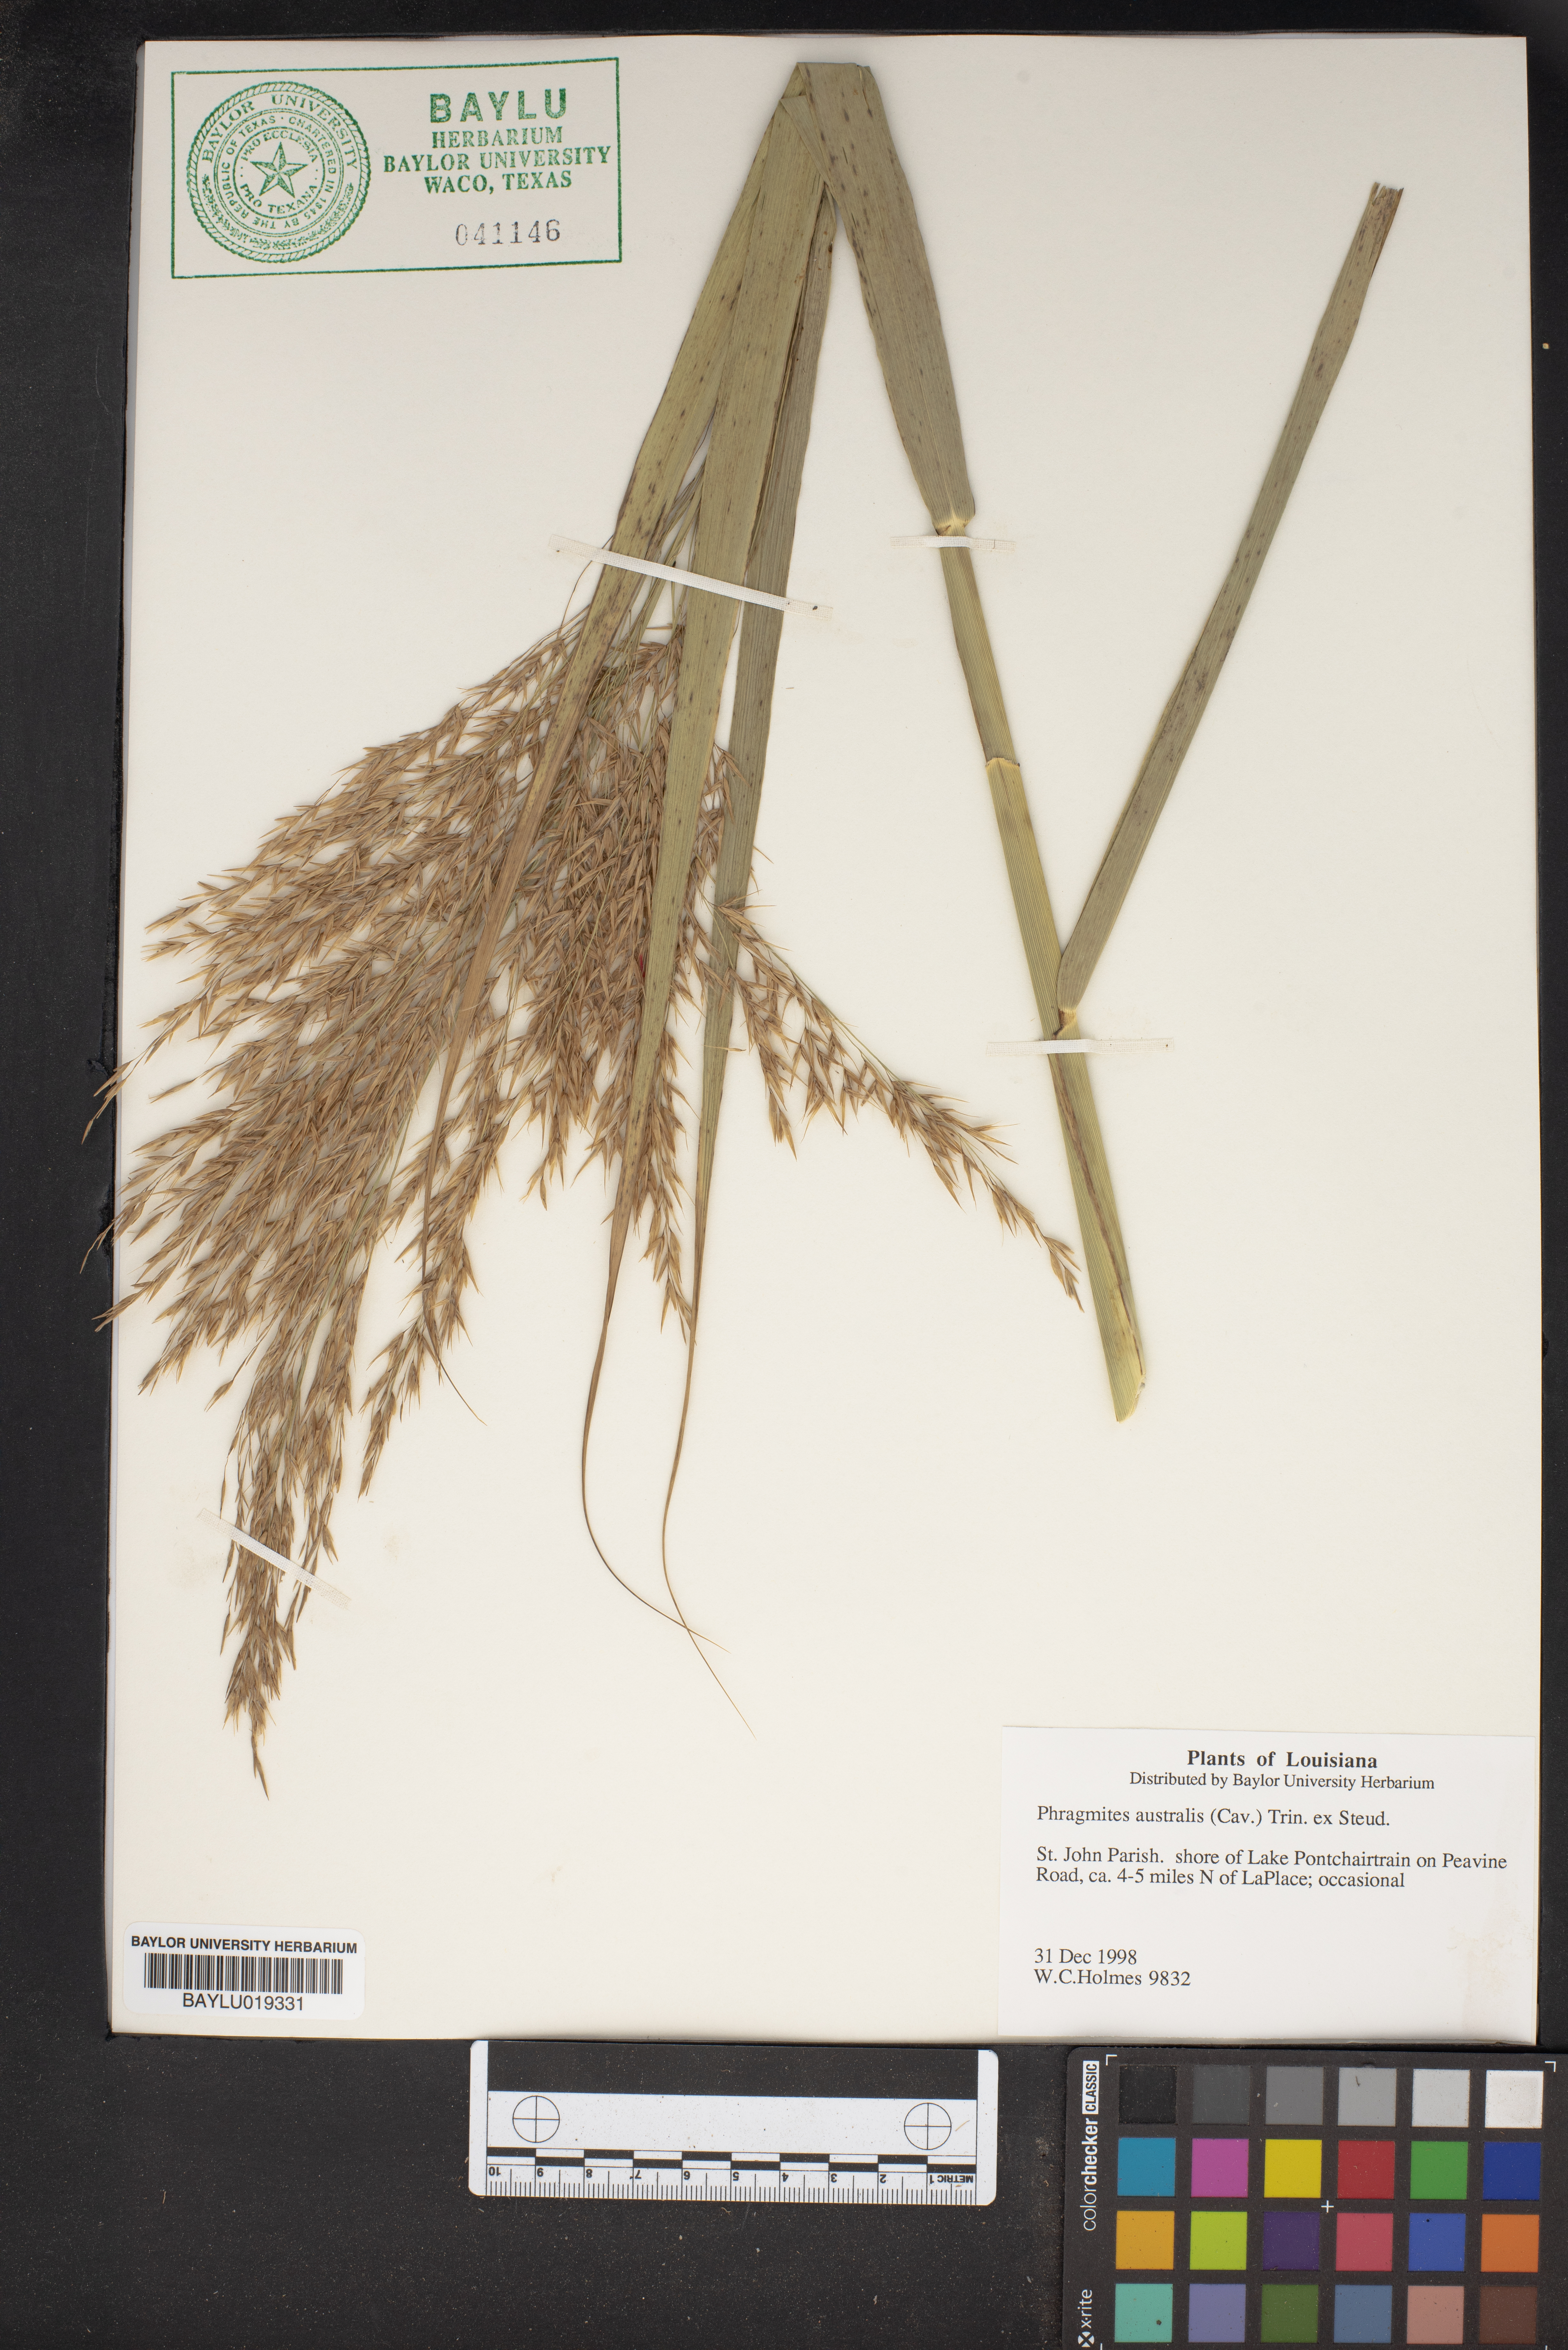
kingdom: Plantae
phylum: Tracheophyta
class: Liliopsida
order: Poales
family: Poaceae
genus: Phragmites
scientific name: Phragmites australis
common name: Common reed
